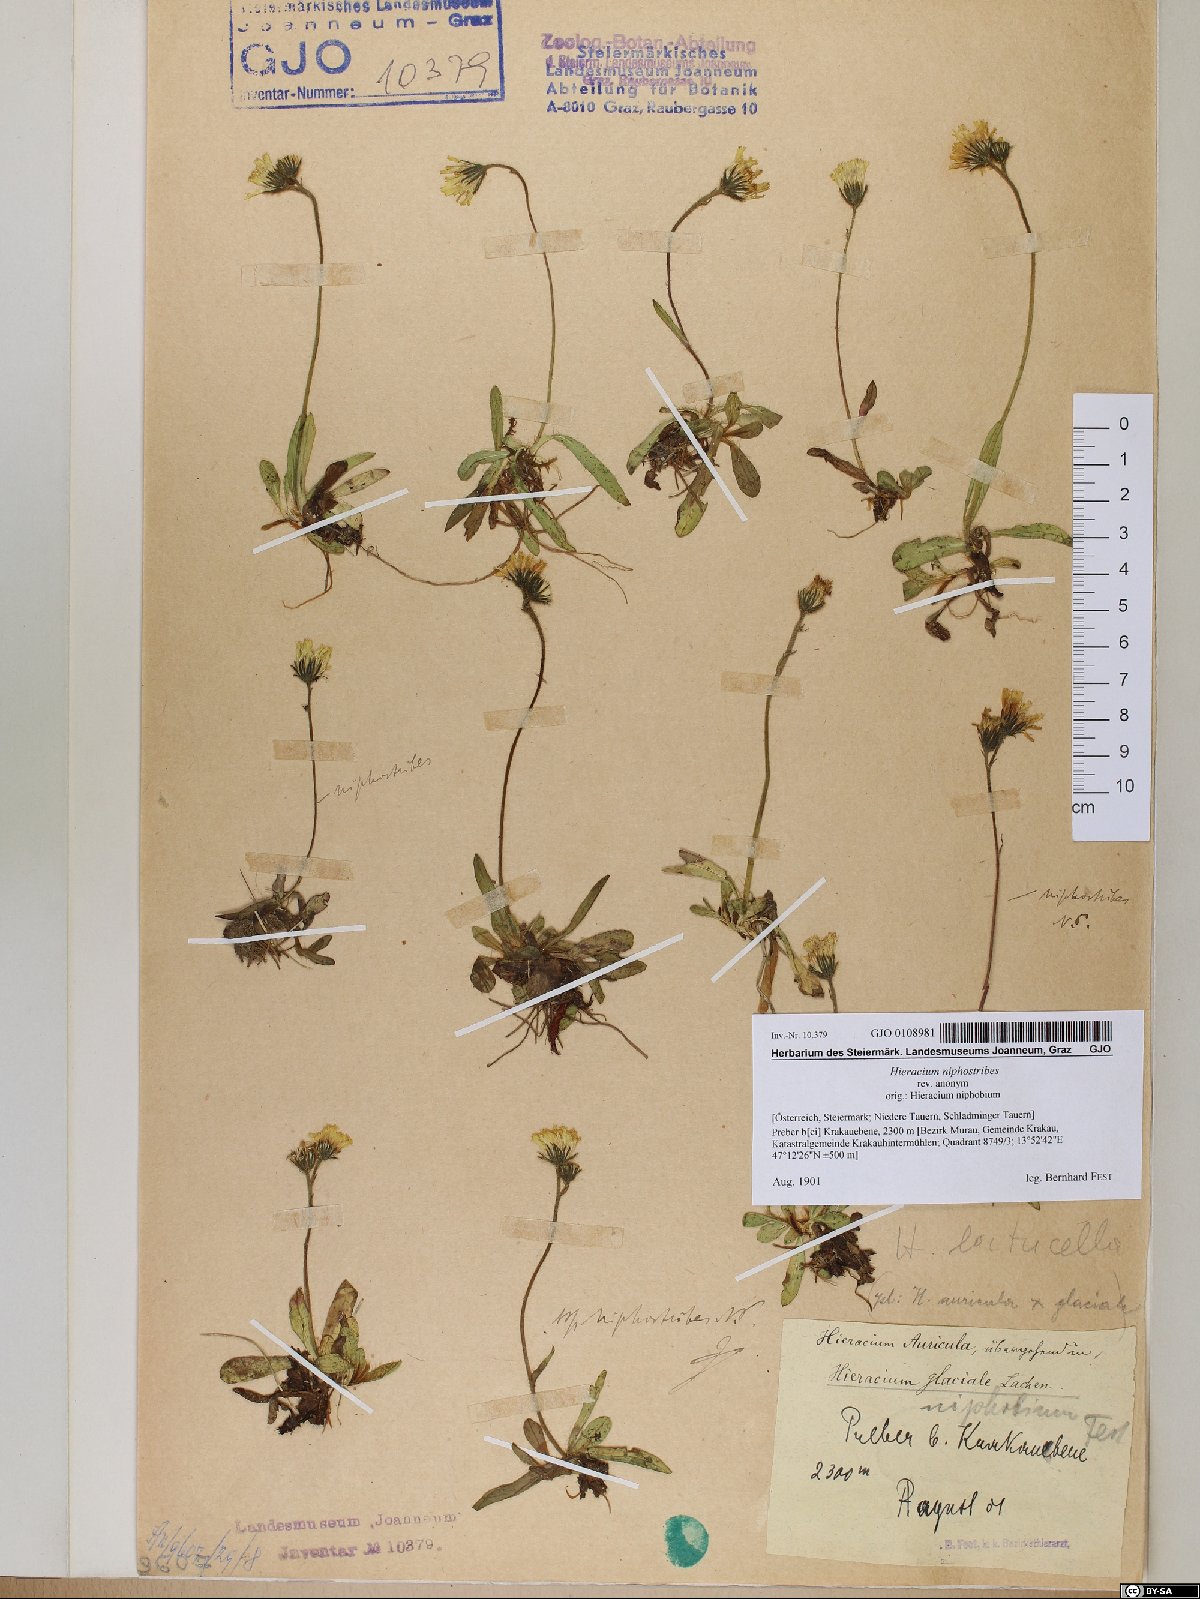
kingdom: Plantae
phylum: Tracheophyta
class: Magnoliopsida
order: Asterales
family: Asteraceae
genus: Pilosella
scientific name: Pilosella corymbuloides
